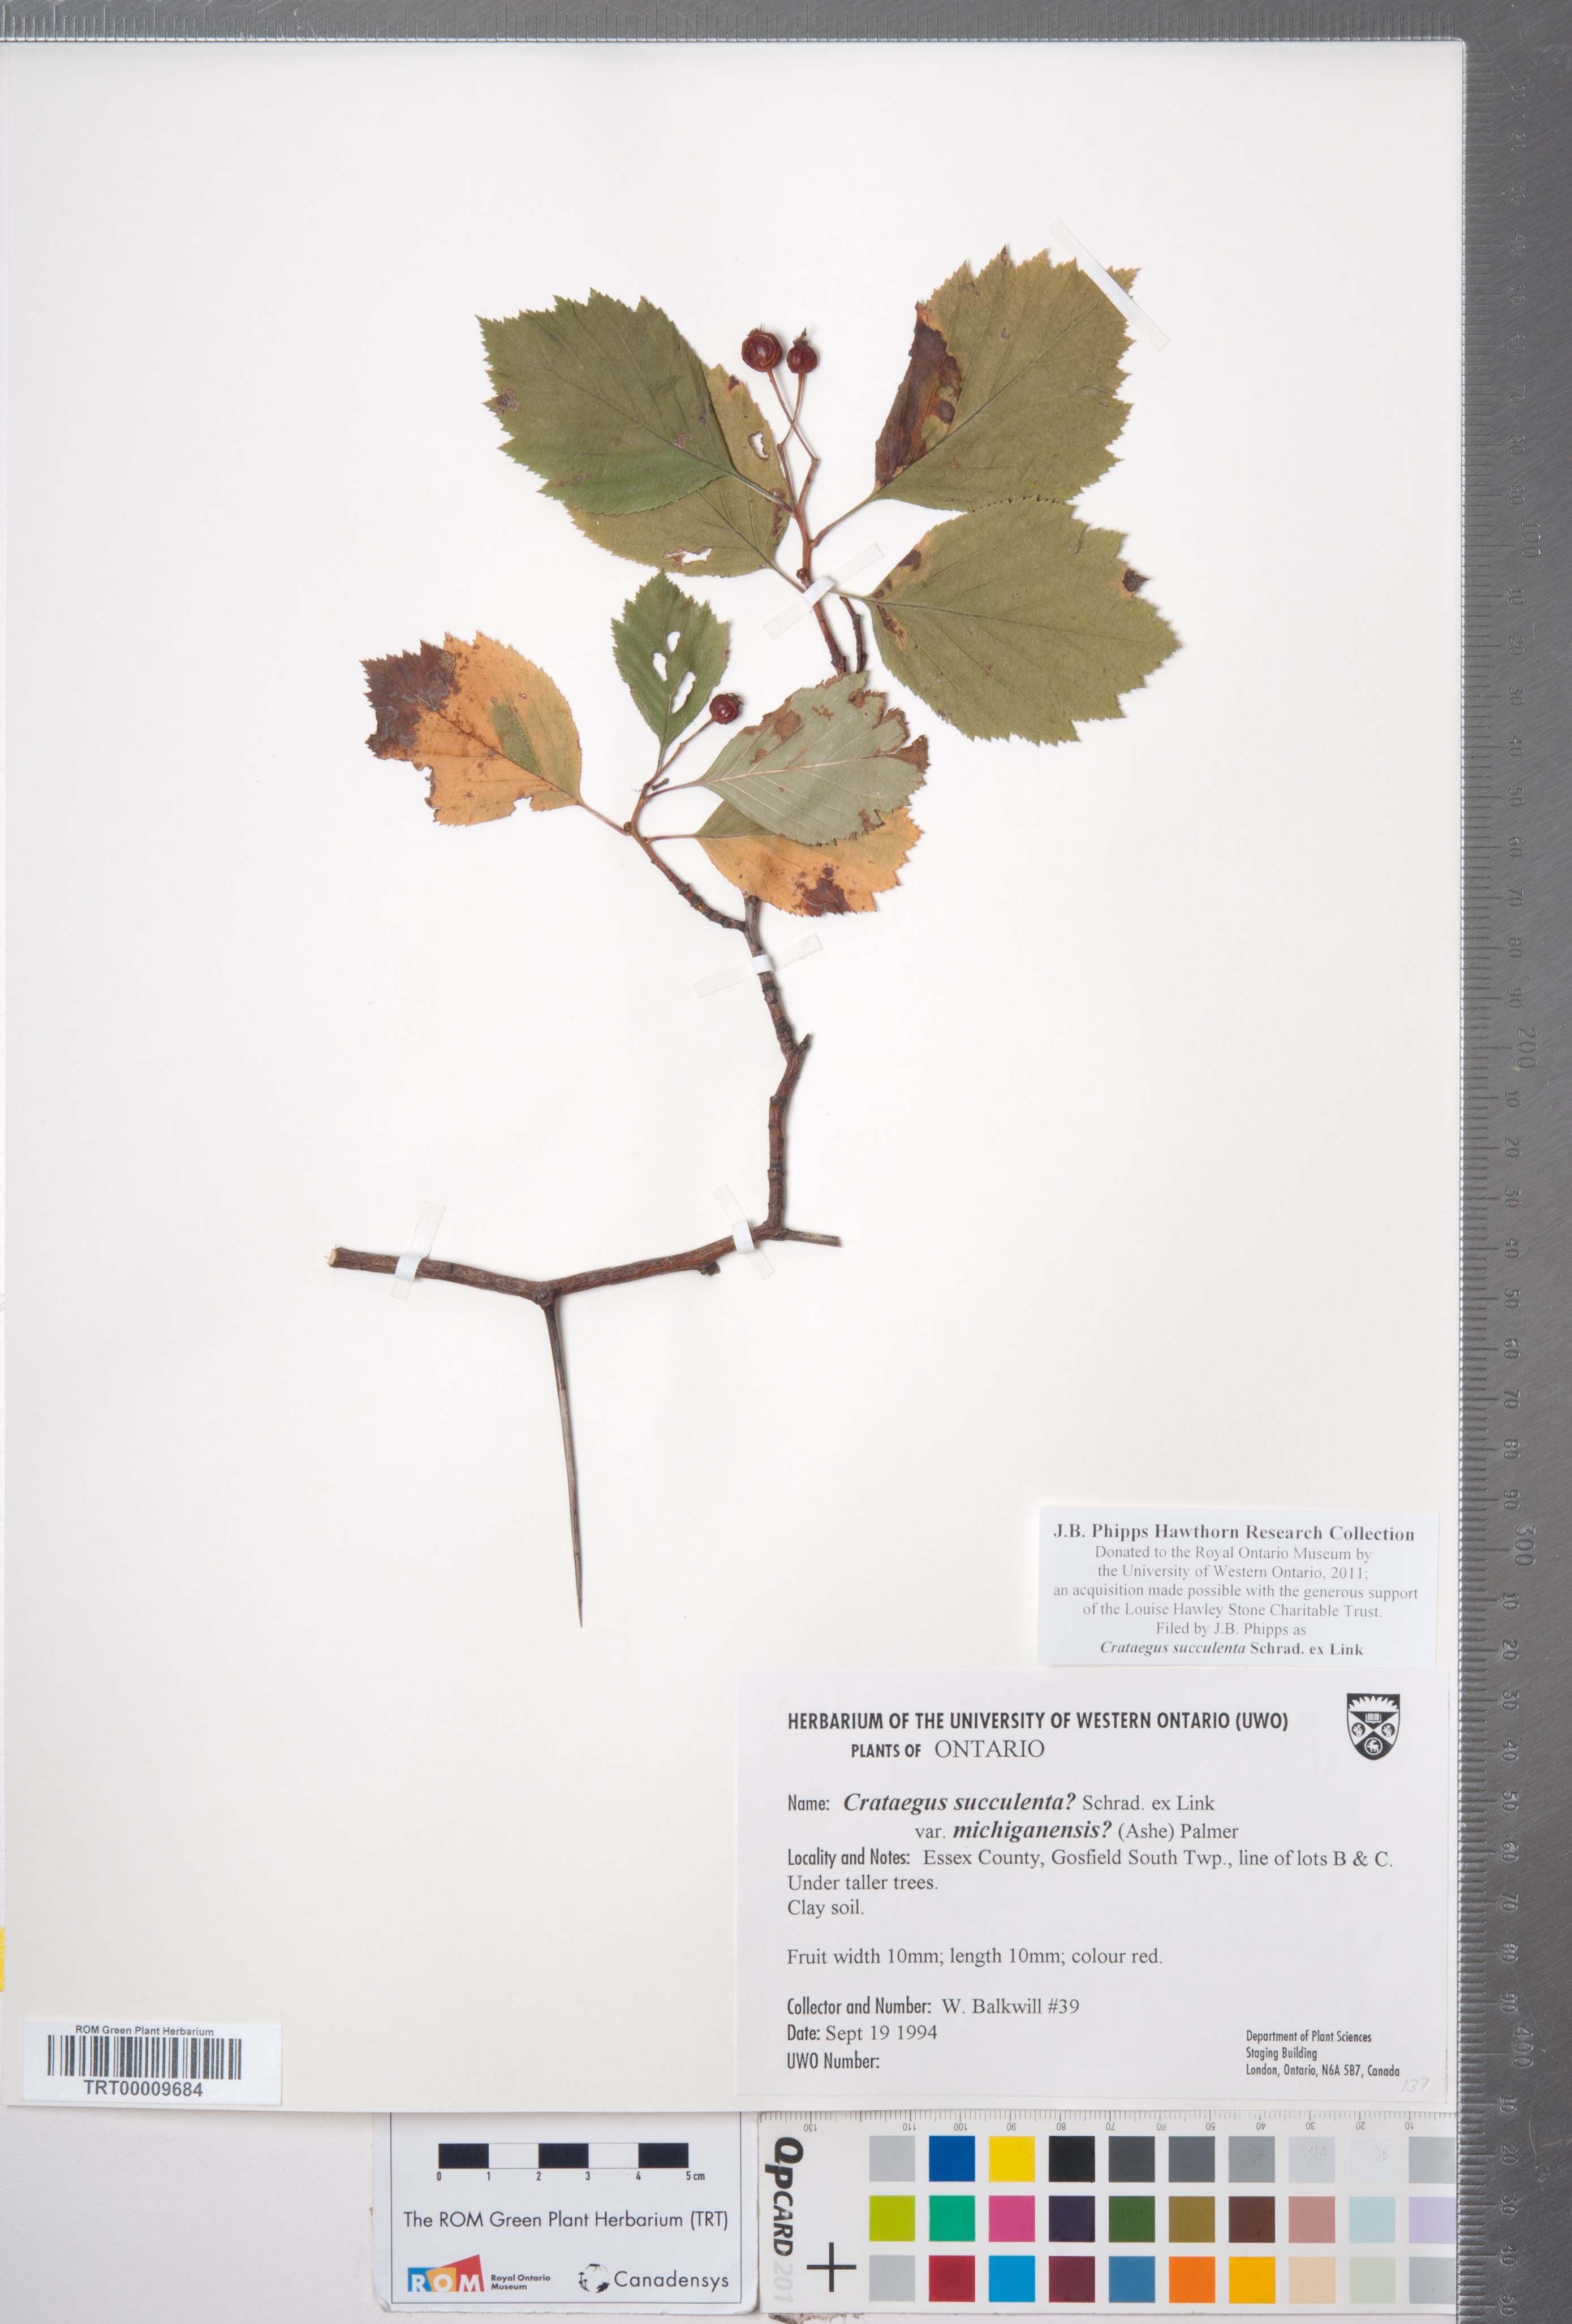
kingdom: Plantae
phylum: Tracheophyta
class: Magnoliopsida
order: Rosales
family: Rosaceae
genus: Crataegus
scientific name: Crataegus succulenta
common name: Fleshy hawthorn
